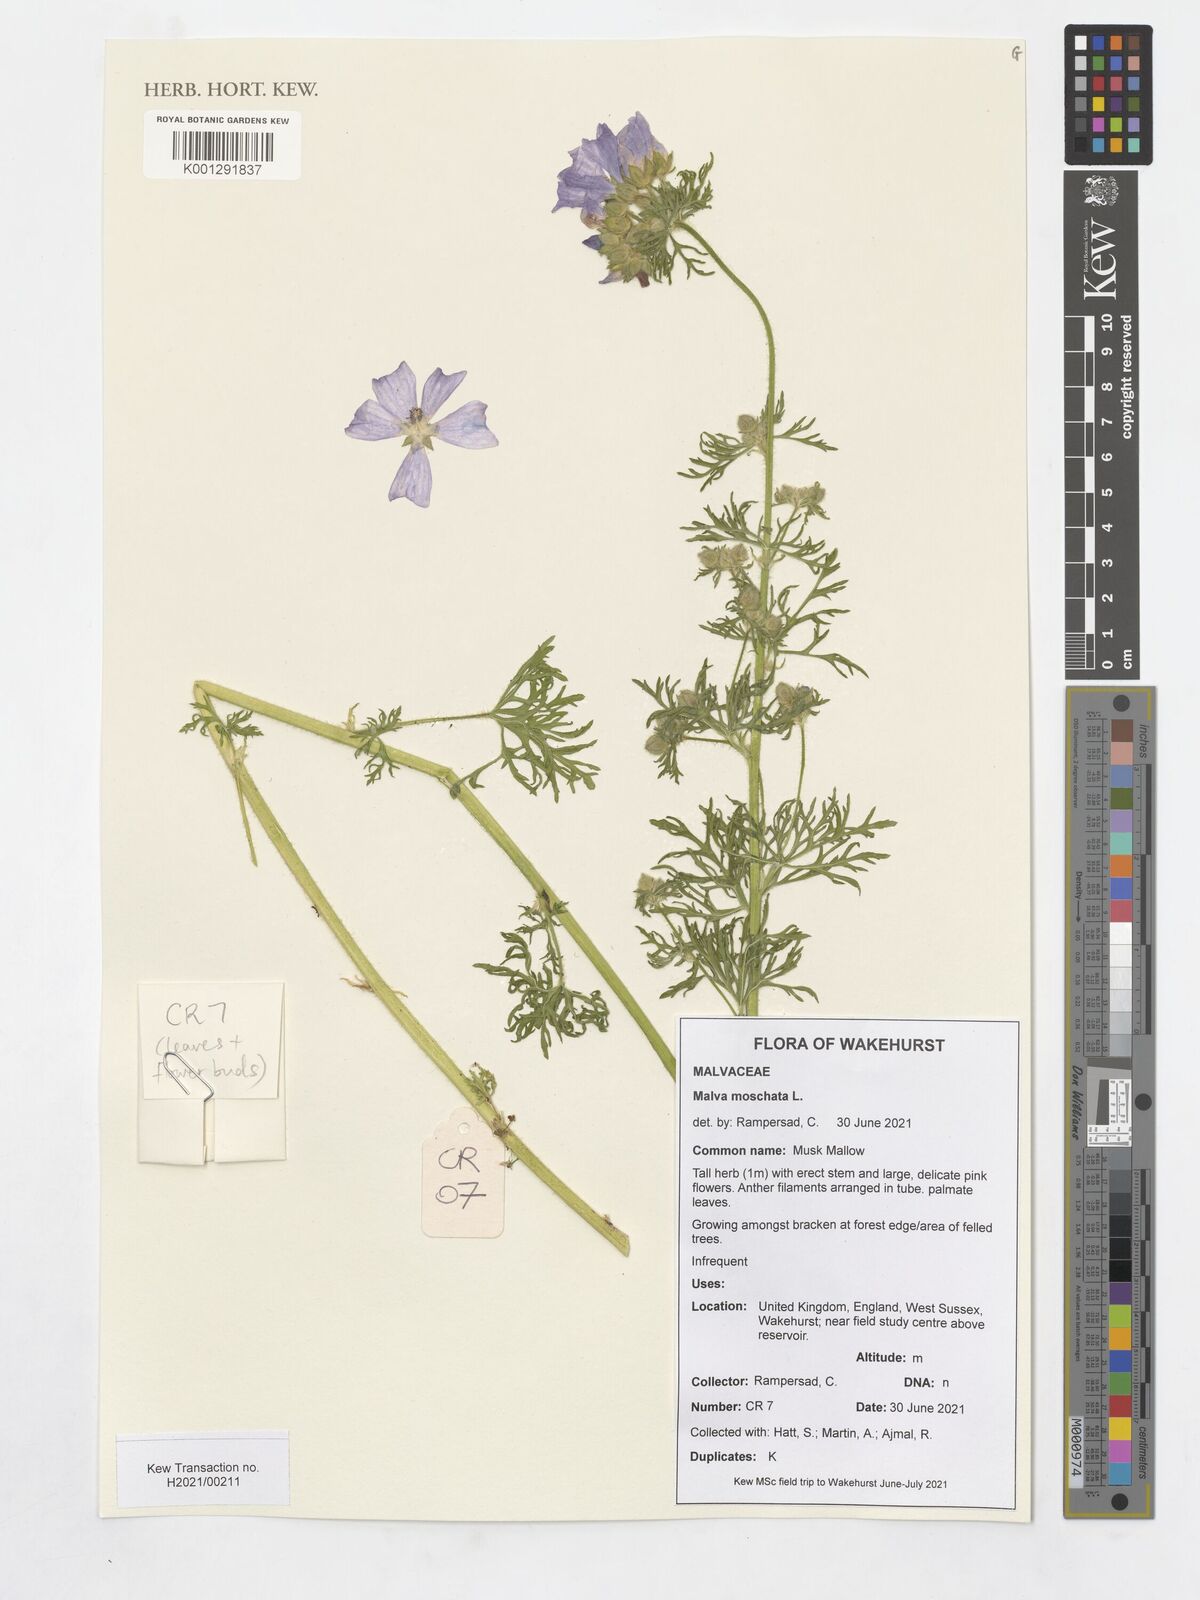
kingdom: Plantae
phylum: Tracheophyta
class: Magnoliopsida
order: Malvales
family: Malvaceae
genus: Malva
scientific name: Malva moschata
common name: Musk mallow
